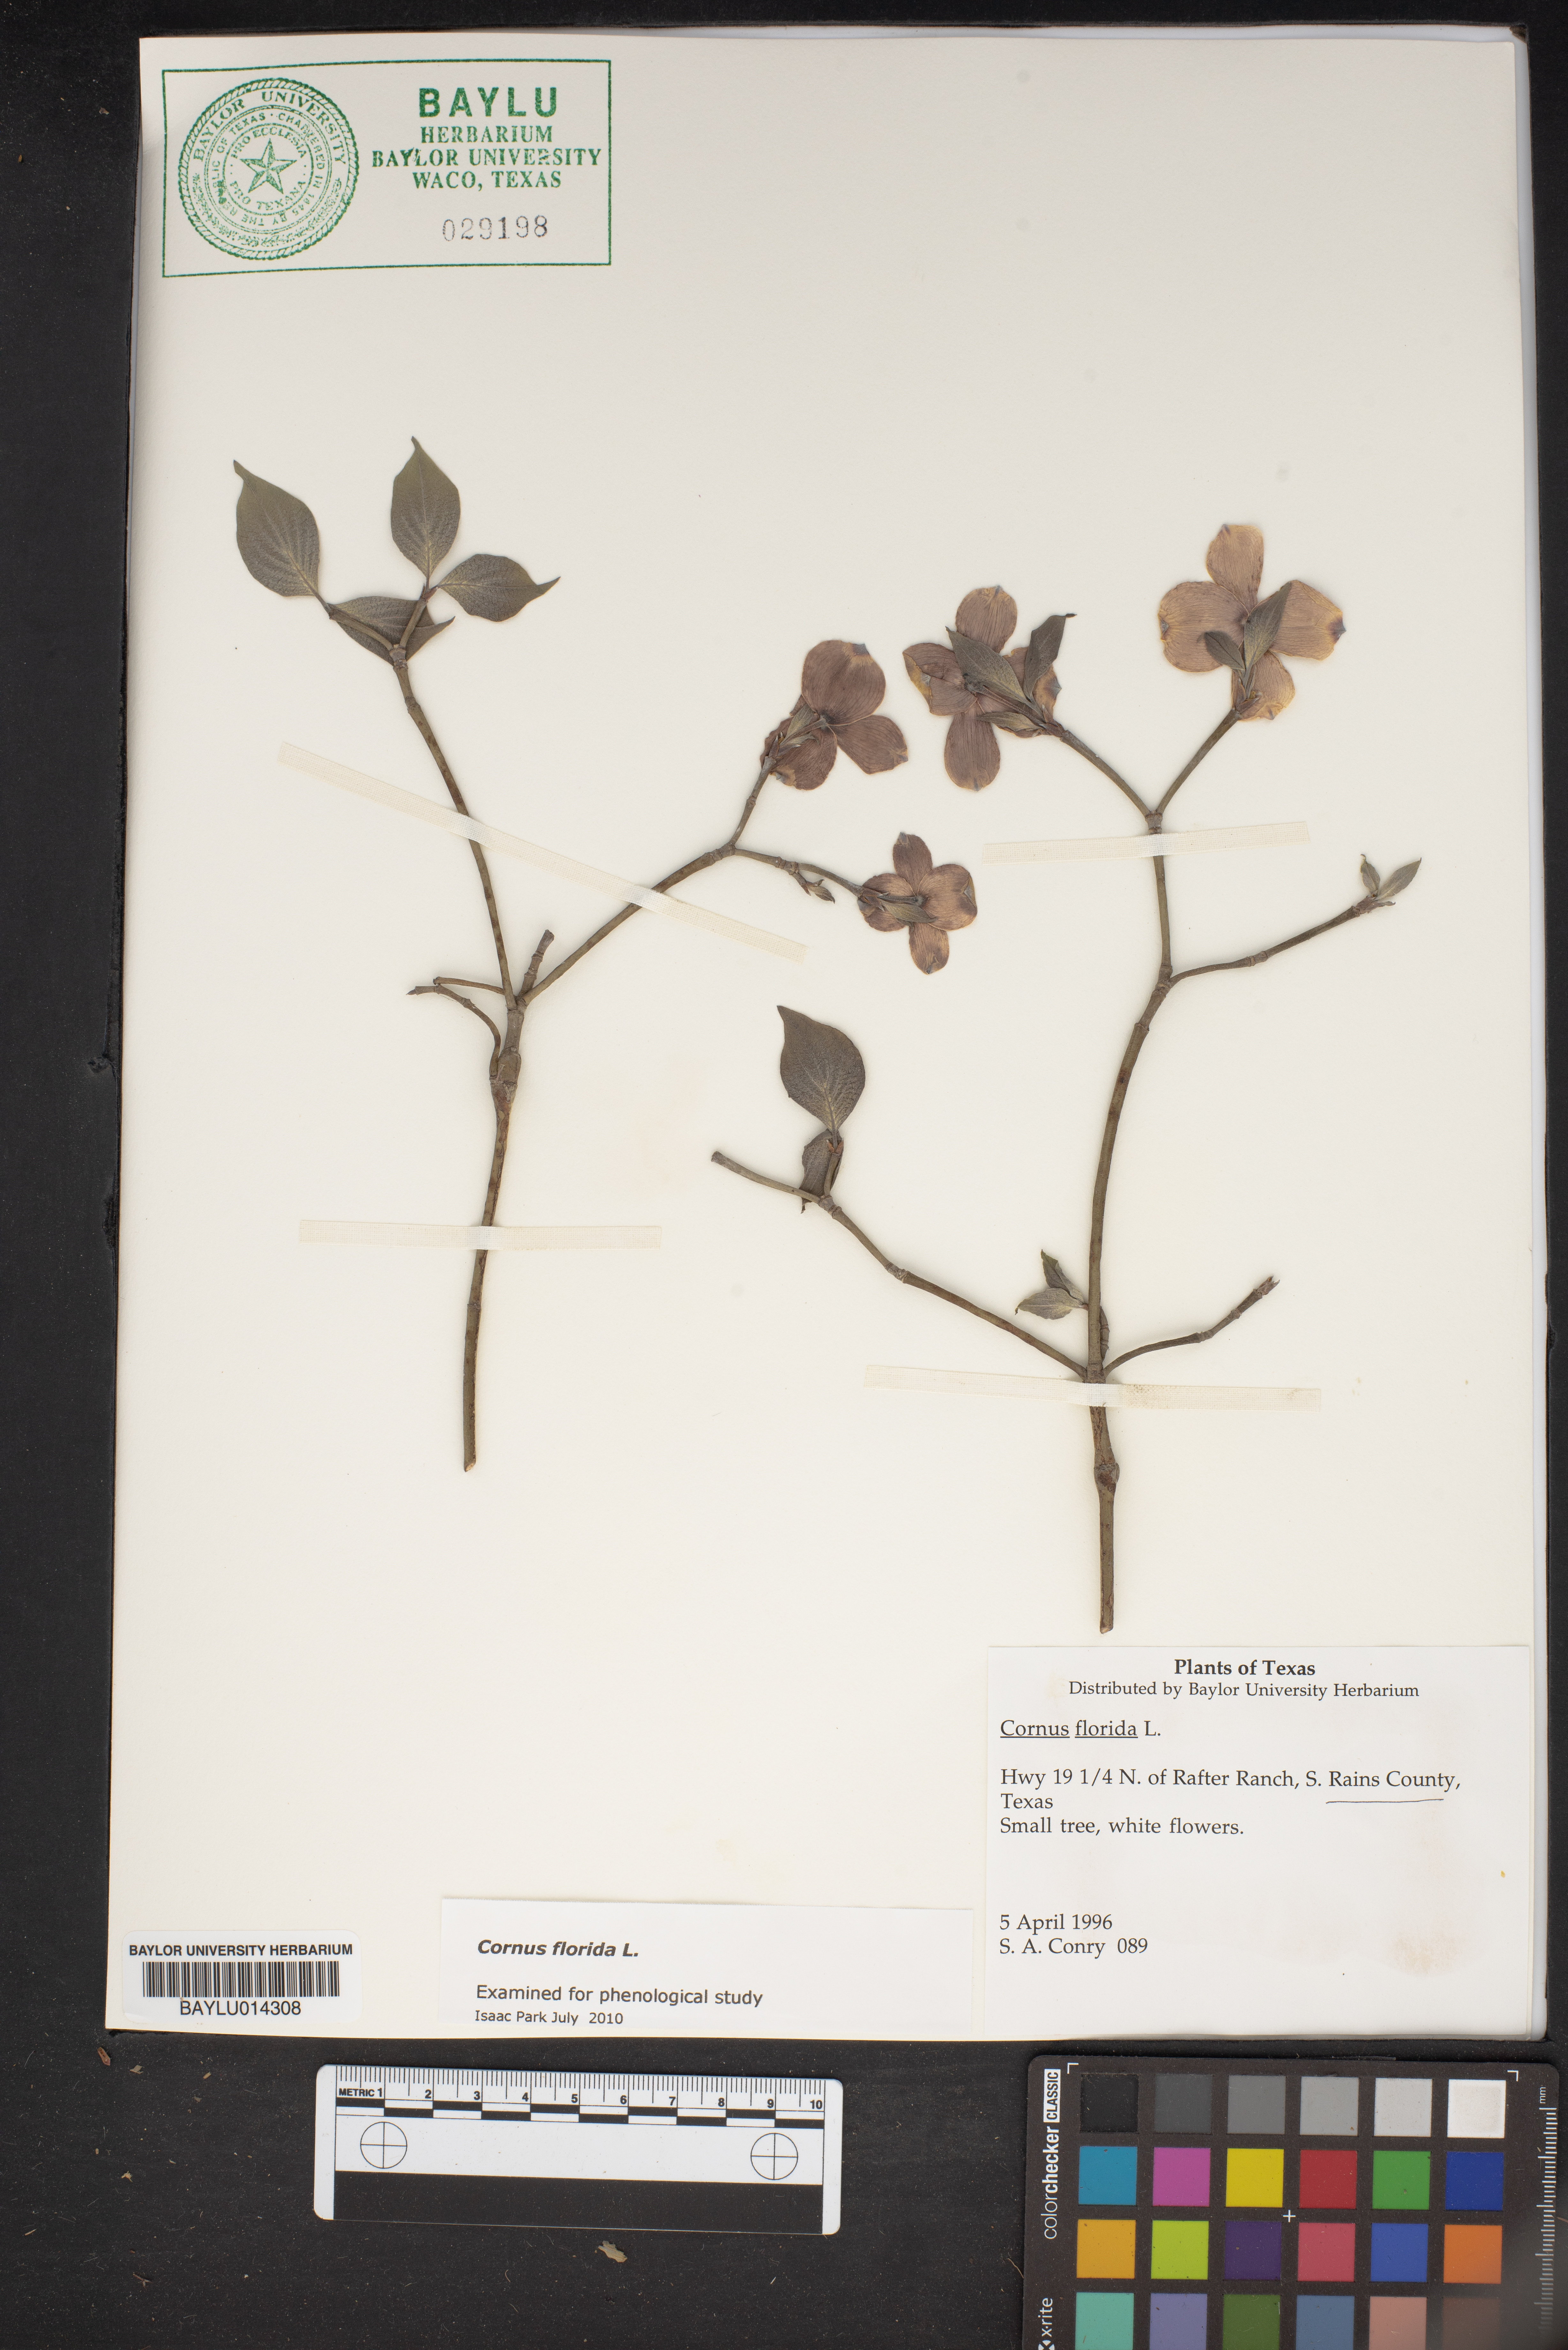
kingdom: Plantae
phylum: Tracheophyta
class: Magnoliopsida
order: Cornales
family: Cornaceae
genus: Cornus
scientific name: Cornus florida
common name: Flowering dogwood
